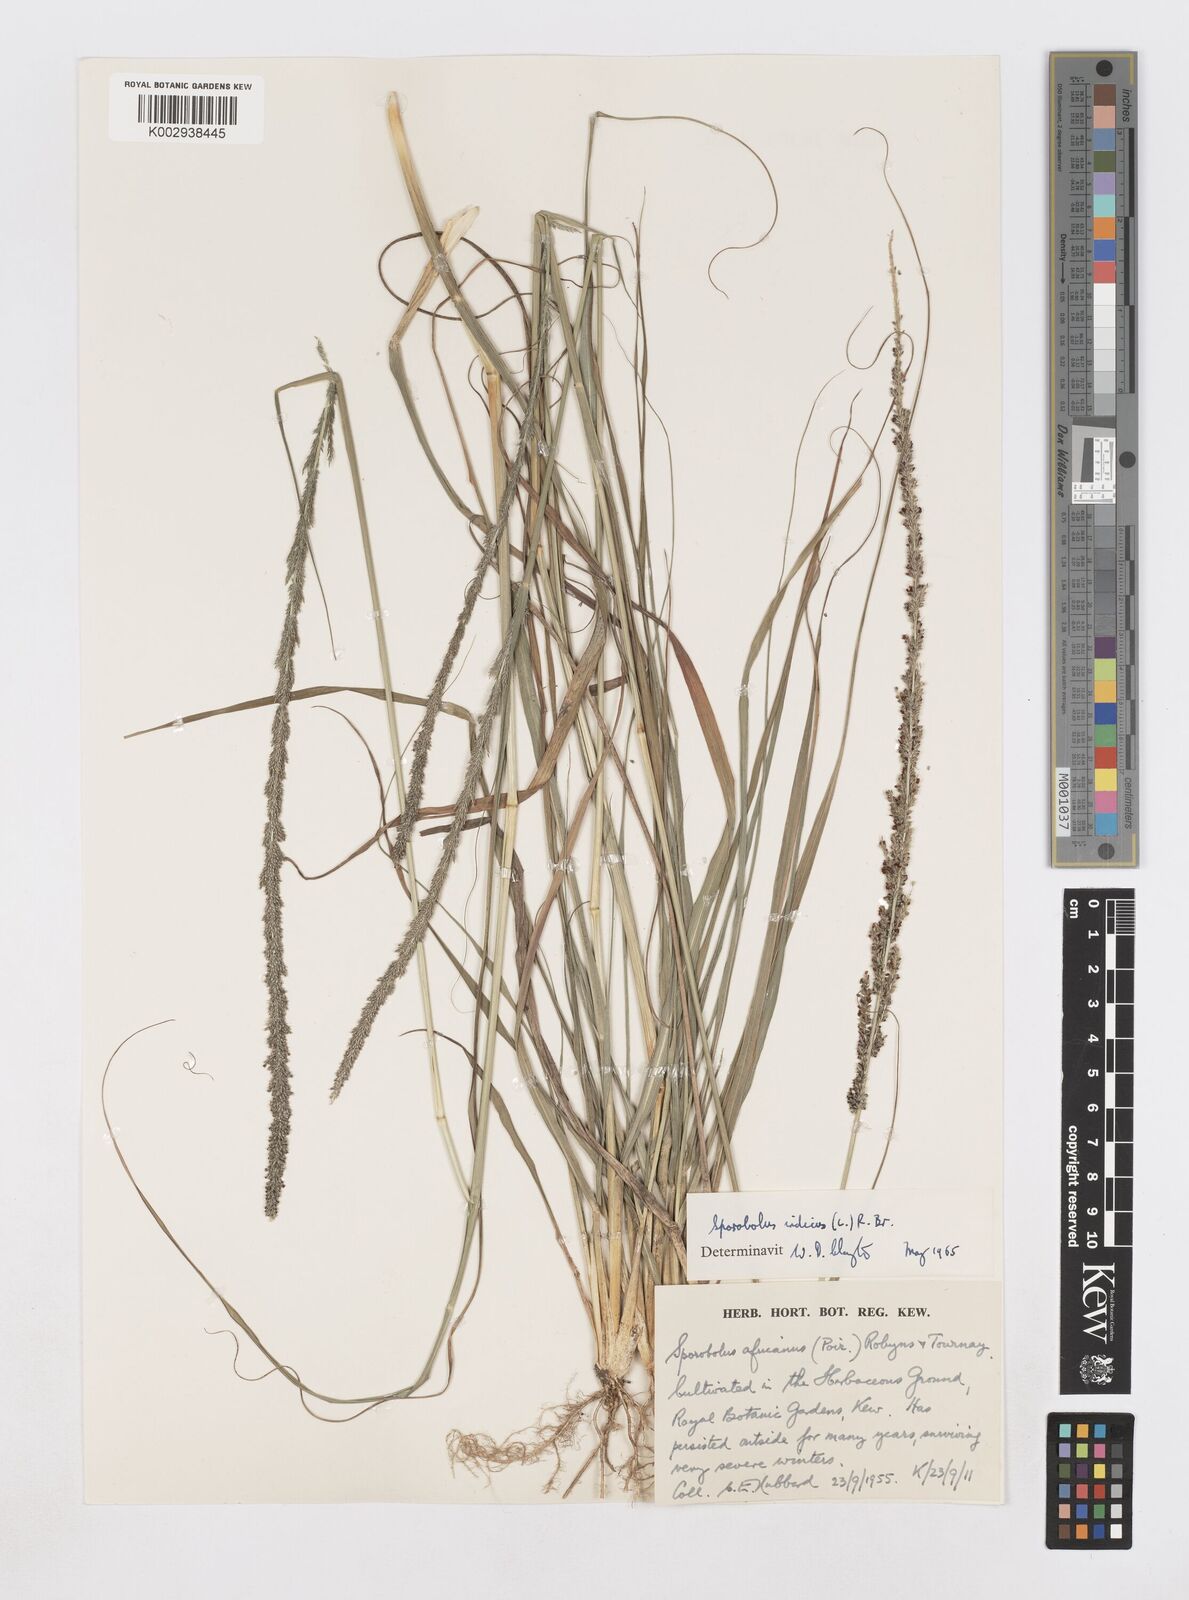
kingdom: Plantae
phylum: Tracheophyta
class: Liliopsida
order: Poales
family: Poaceae
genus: Sporobolus
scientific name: Sporobolus indicus
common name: Smut grass
